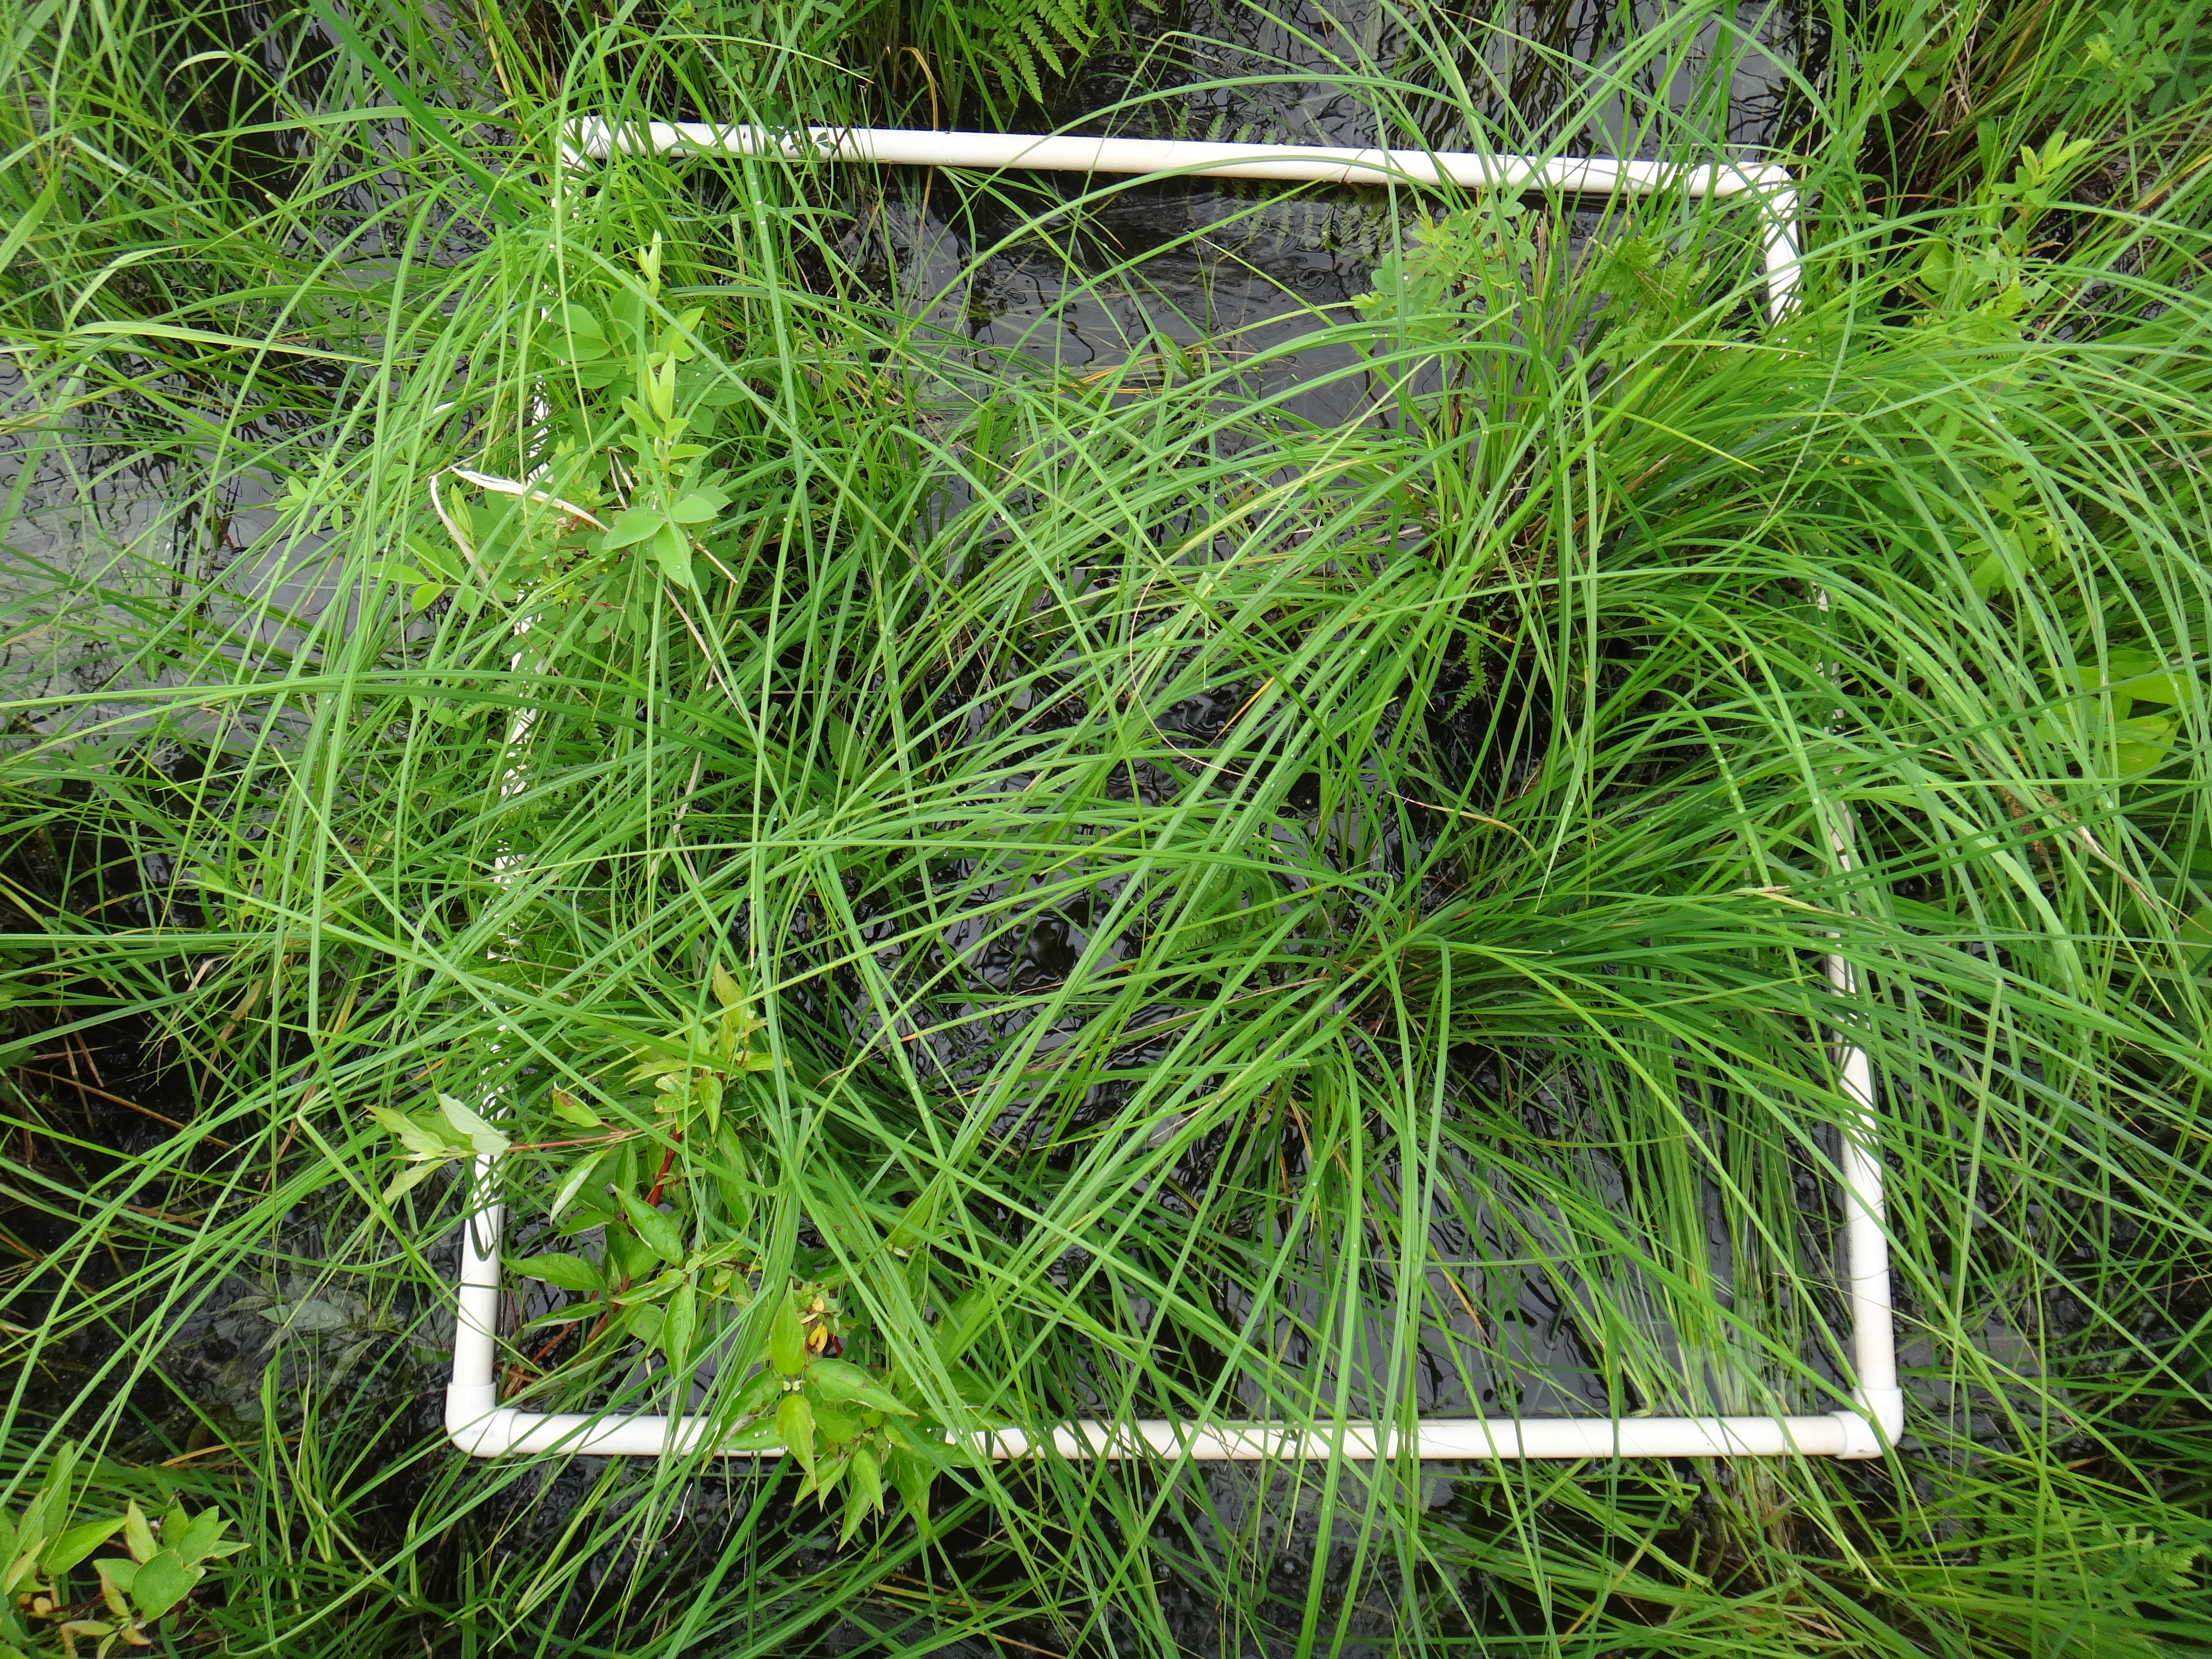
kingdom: Plantae
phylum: Tracheophyta
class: Magnoliopsida
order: Sapindales
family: Anacardiaceae
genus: Toxicodendron
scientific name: Toxicodendron vernix
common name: Poison sumac
